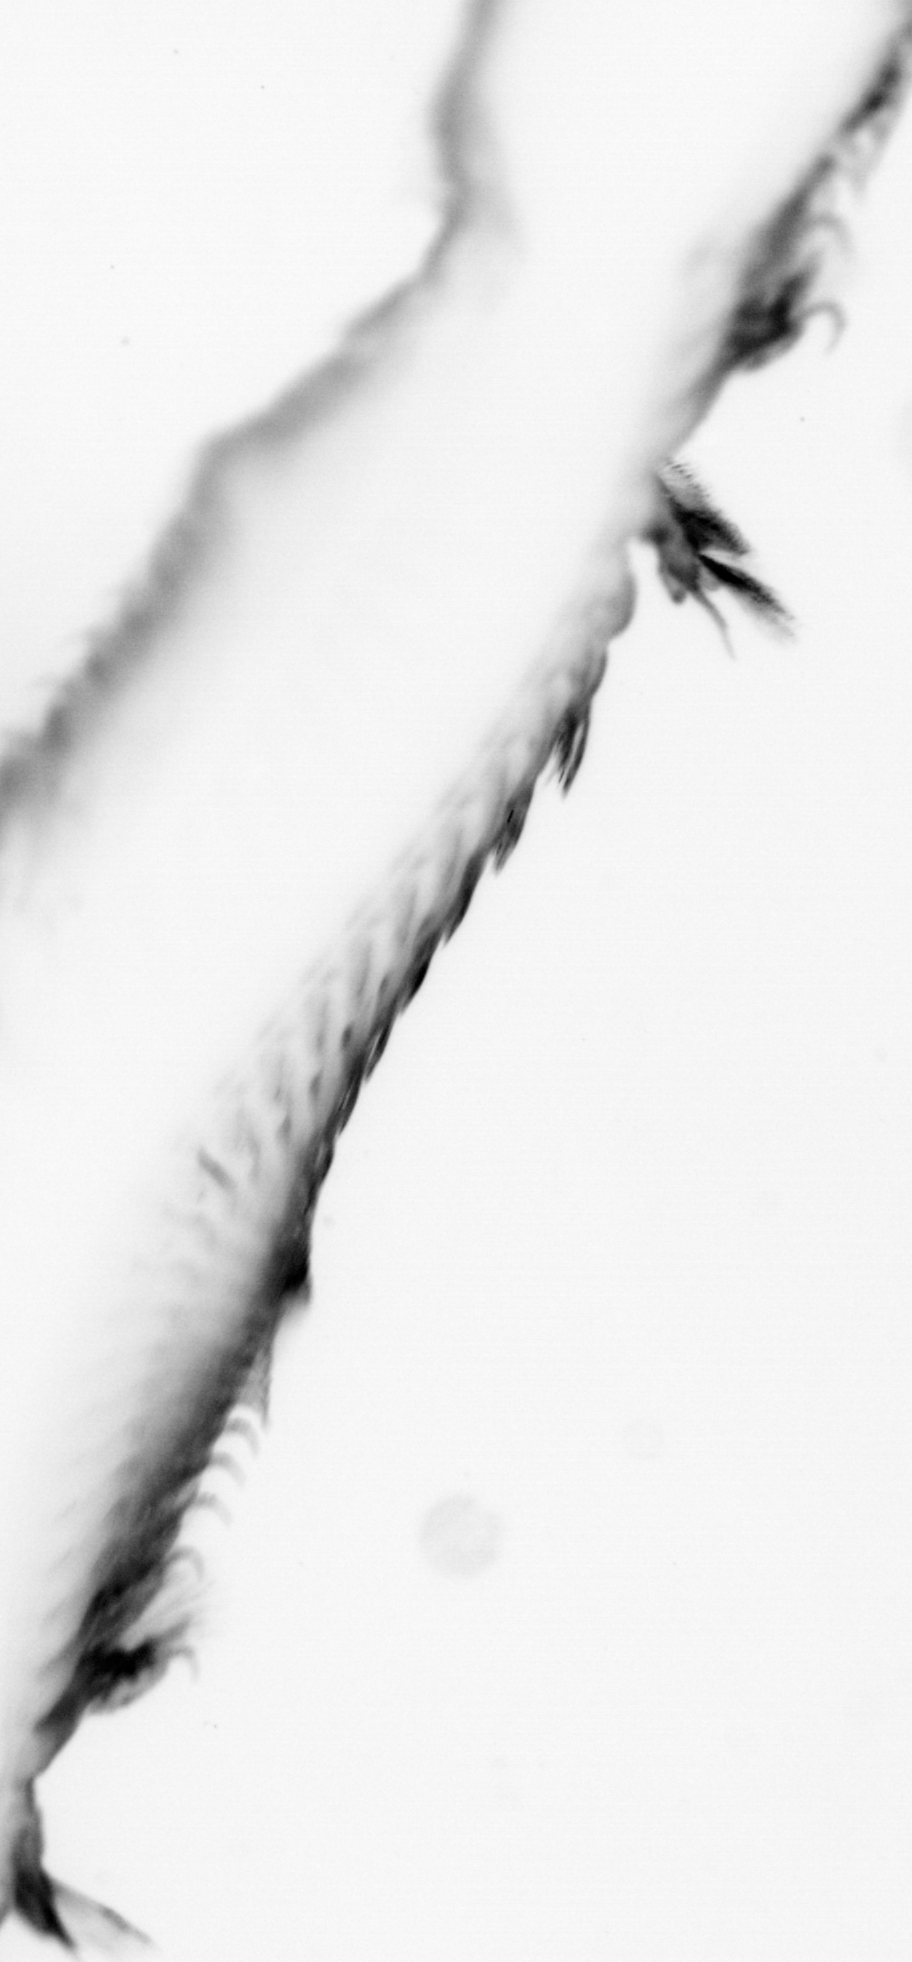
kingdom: Animalia
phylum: Annelida
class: Polychaeta
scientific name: Polychaeta
